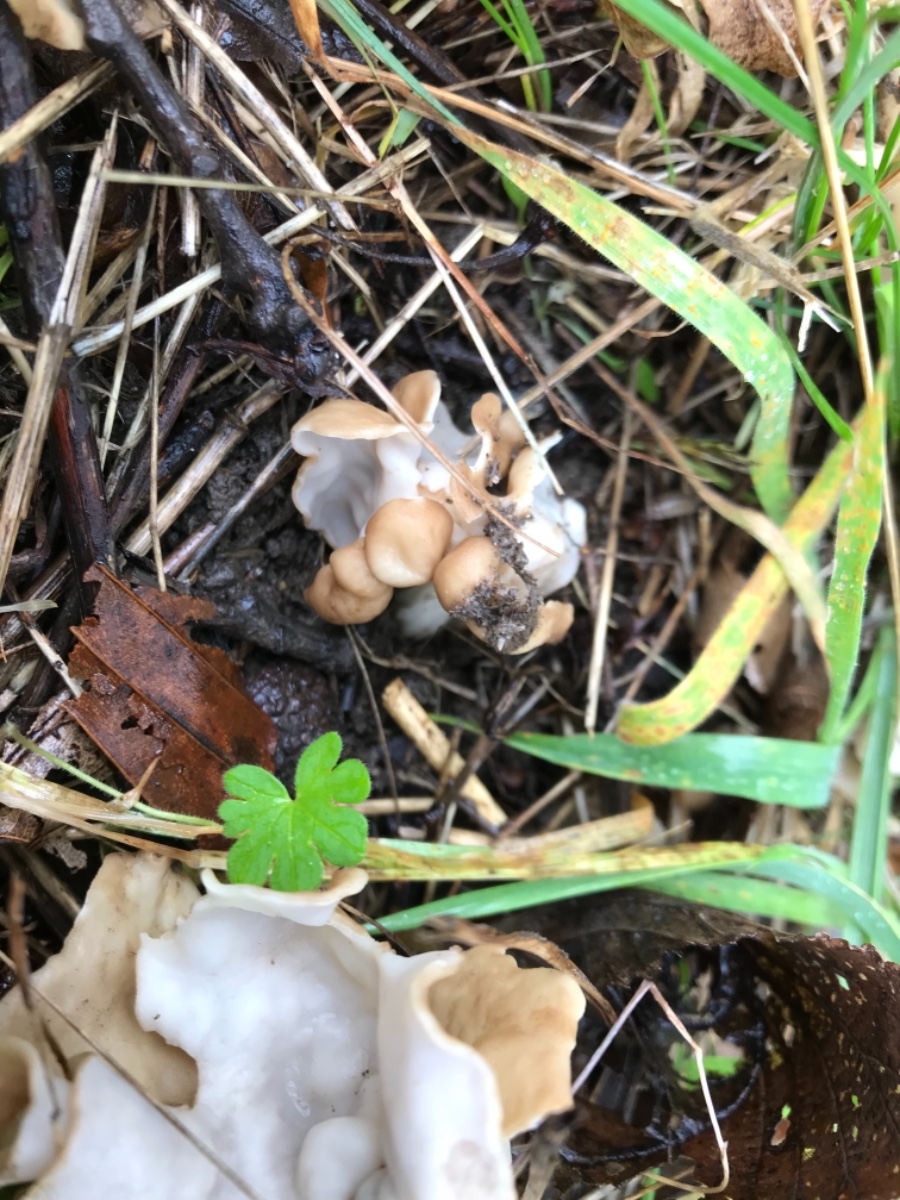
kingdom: Fungi
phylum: Ascomycota
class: Pezizomycetes
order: Pezizales
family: Helvellaceae
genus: Helvella
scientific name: Helvella crispa
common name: kruset foldhat
